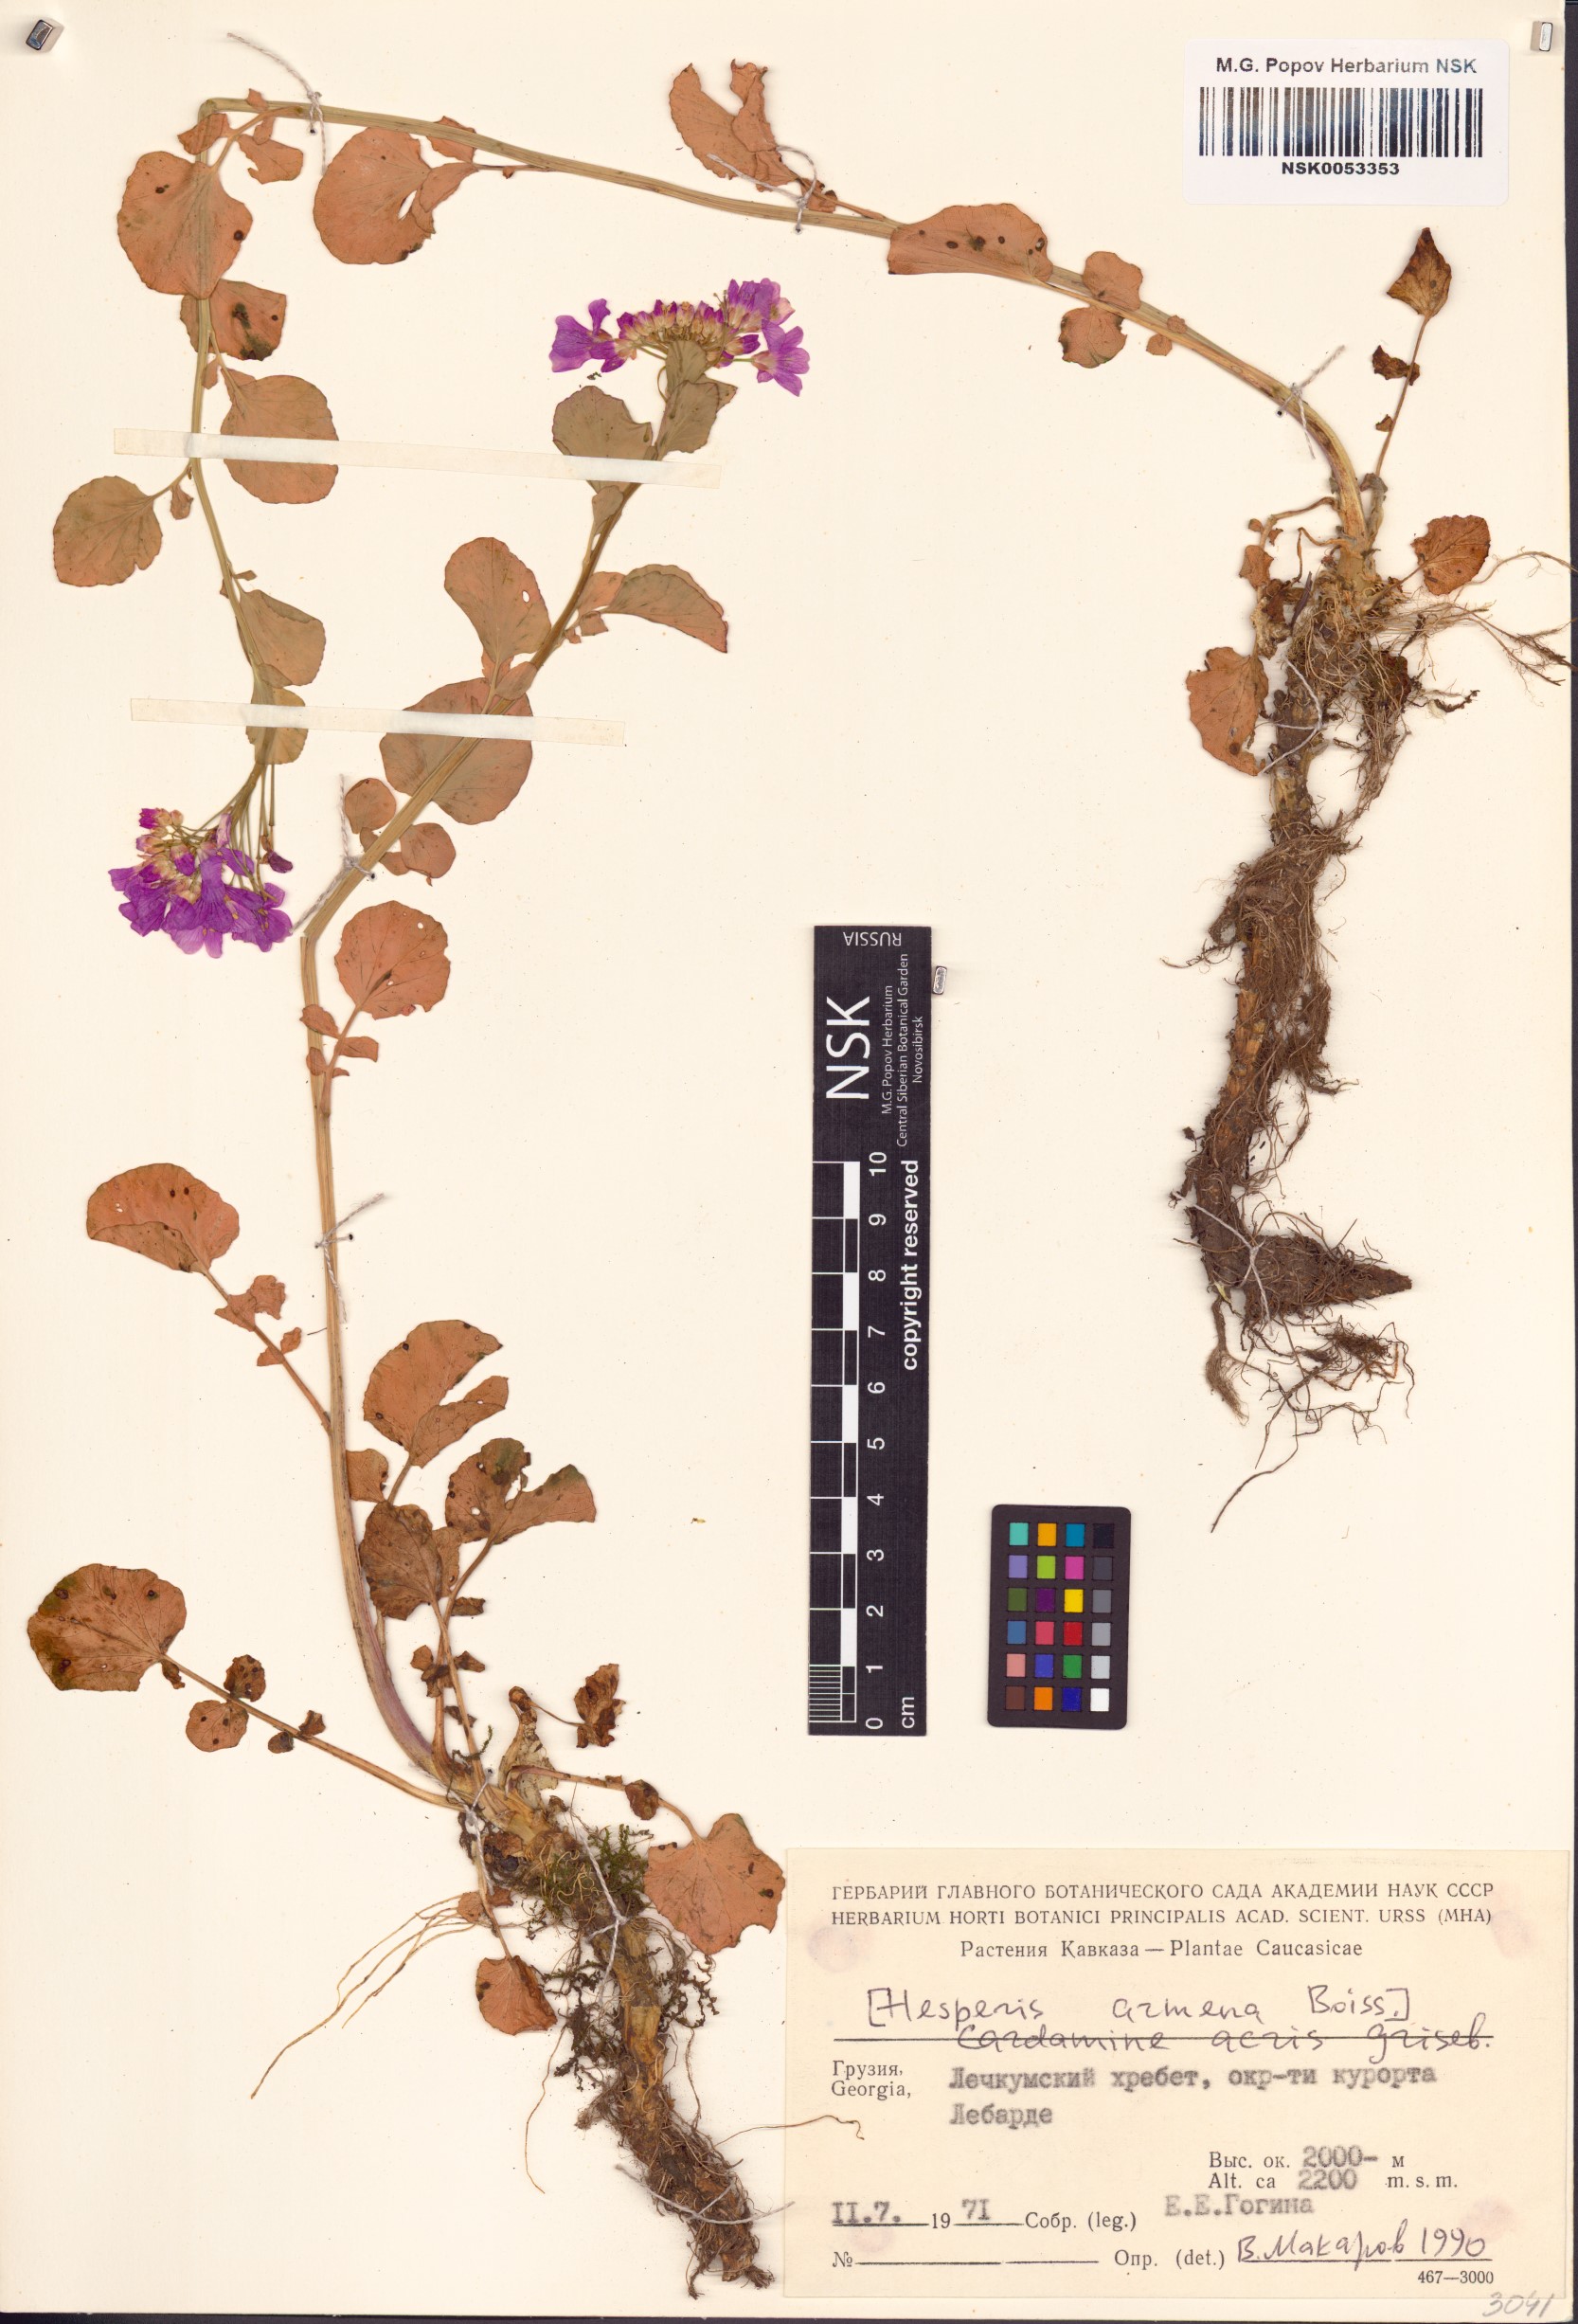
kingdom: Plantae
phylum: Tracheophyta
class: Magnoliopsida
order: Brassicales
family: Brassicaceae
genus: Cardamine
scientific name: Cardamine acris
